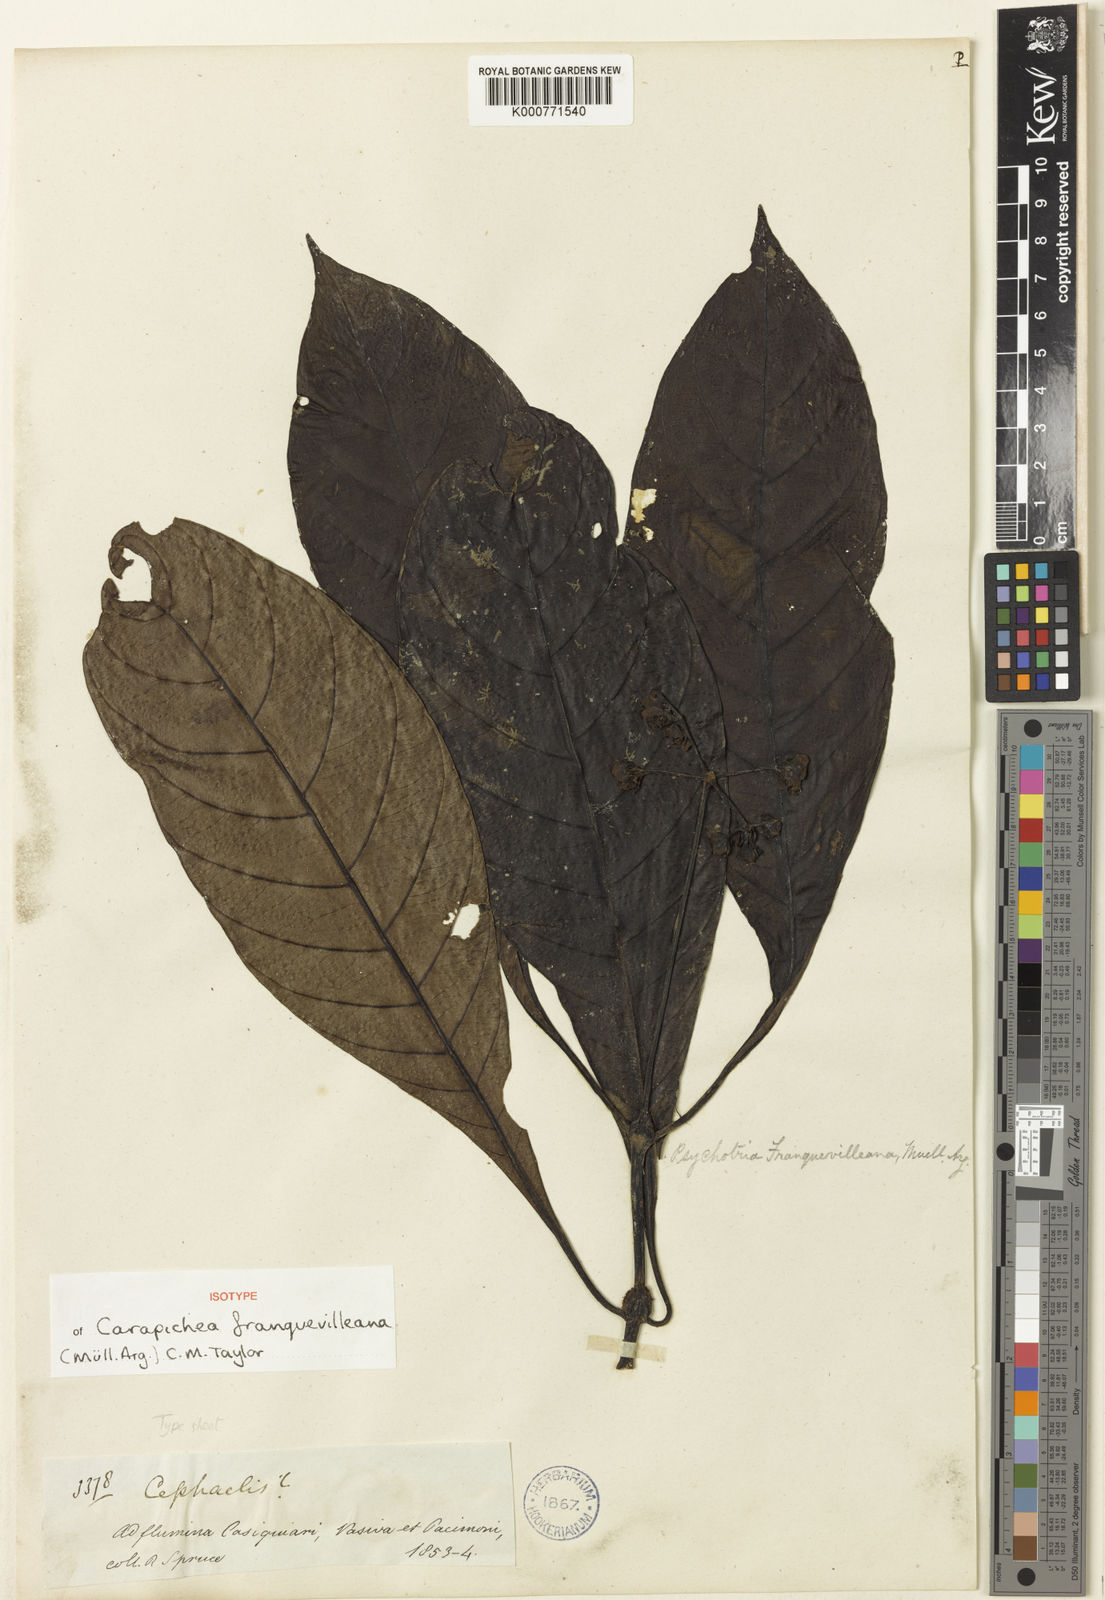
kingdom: Plantae
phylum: Tracheophyta
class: Magnoliopsida
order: Gentianales
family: Rubiaceae
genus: Carapichea
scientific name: Carapichea
